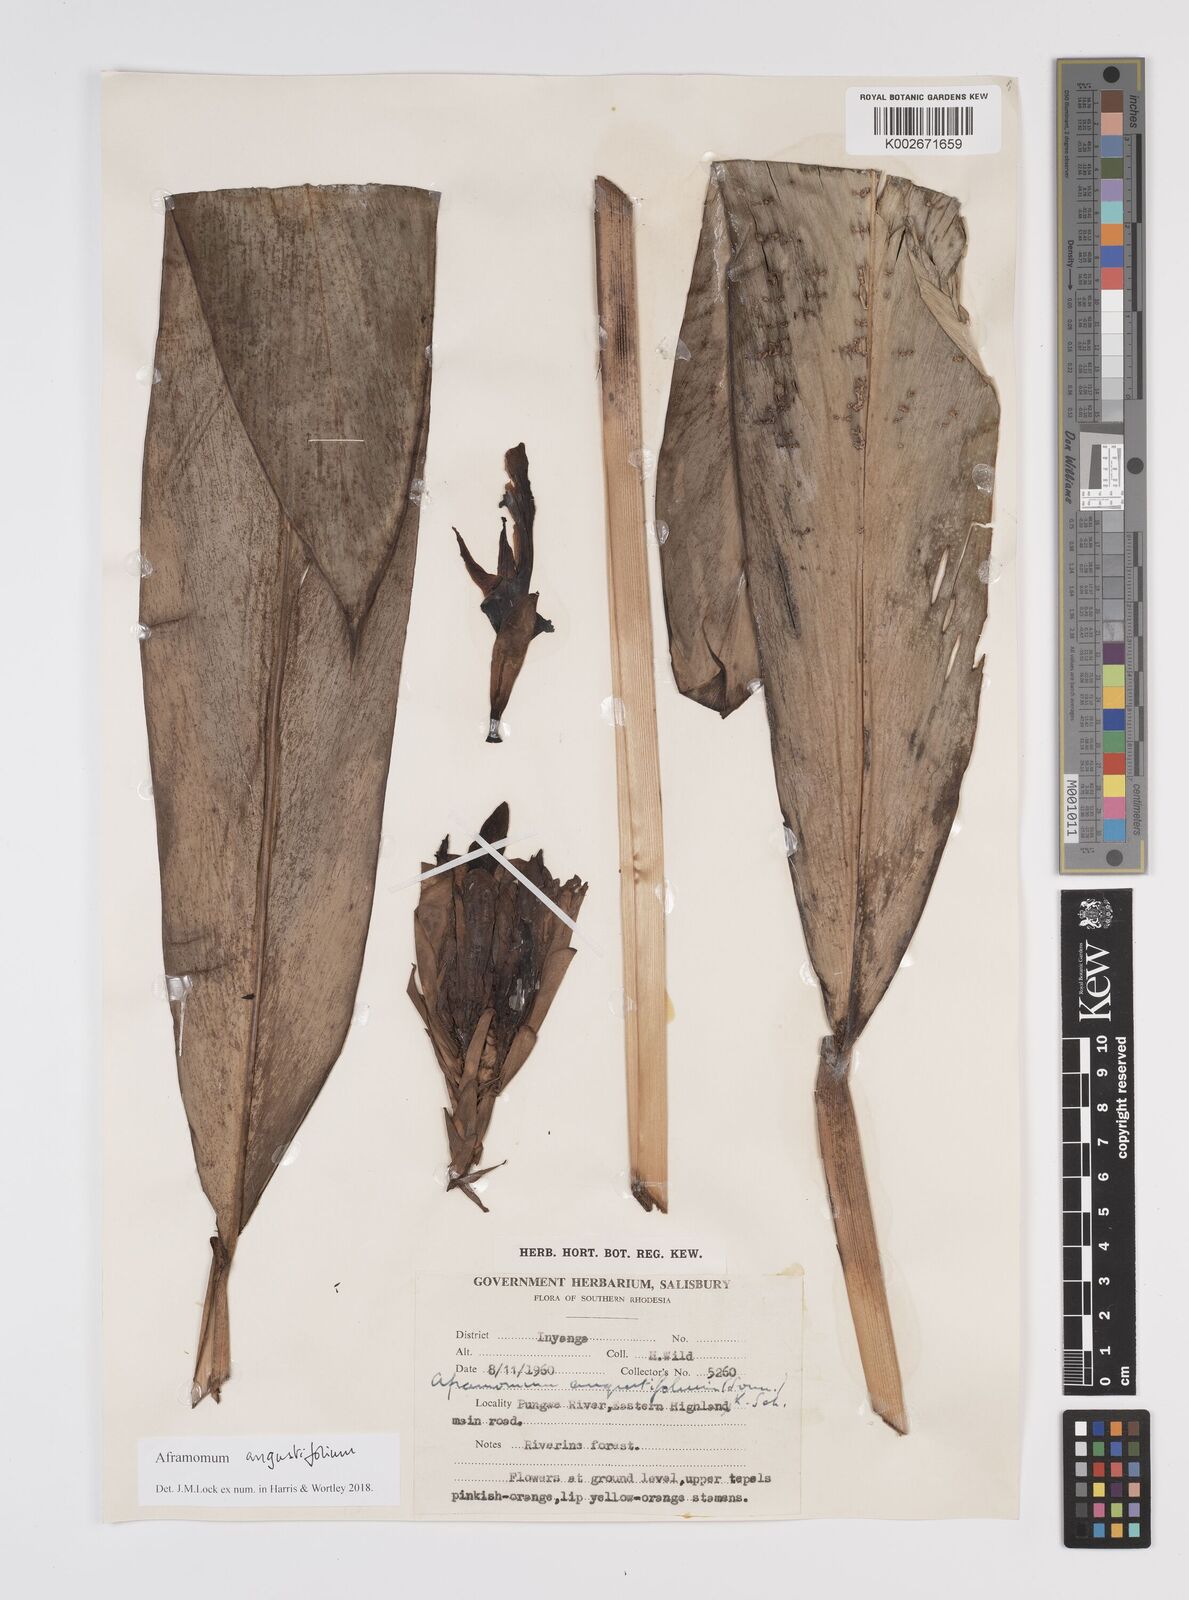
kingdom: Plantae
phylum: Tracheophyta
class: Liliopsida
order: Zingiberales
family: Zingiberaceae
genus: Aframomum
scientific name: Aframomum
